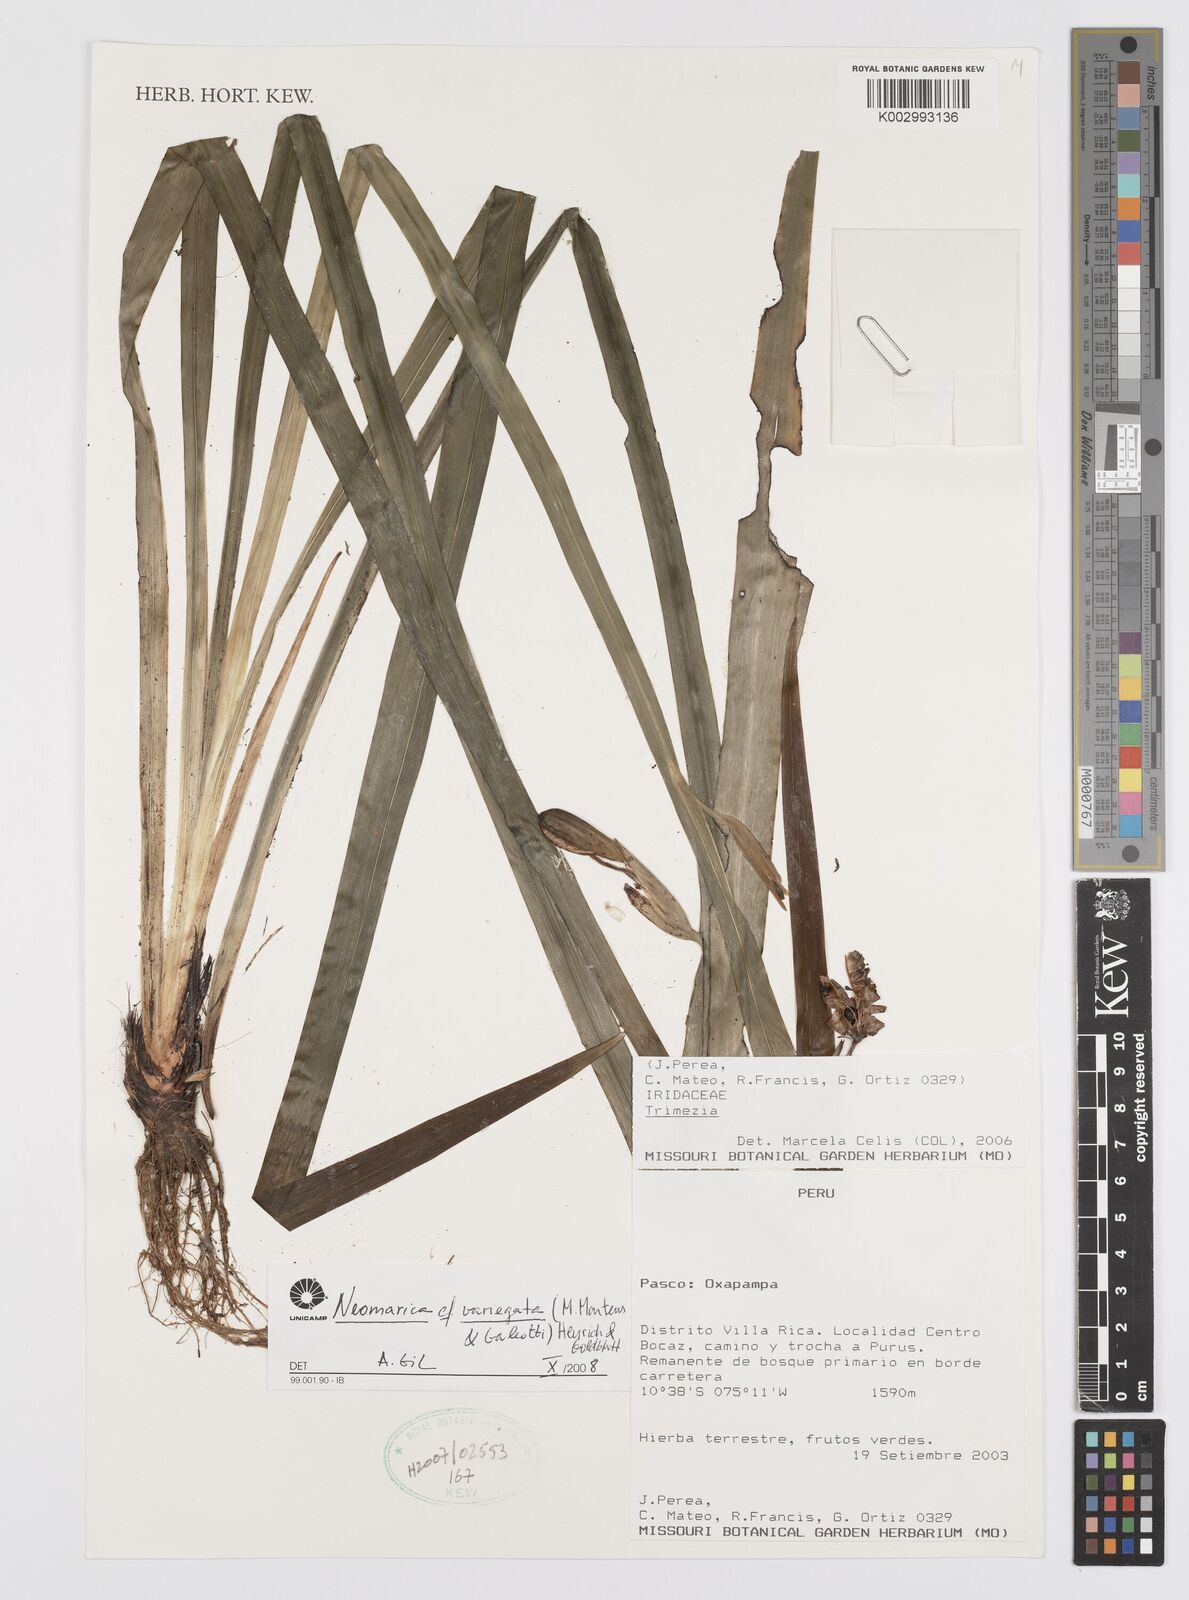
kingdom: Plantae
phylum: Tracheophyta
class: Liliopsida
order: Asparagales
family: Iridaceae
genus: Trimezia
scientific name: Trimezia variegata
